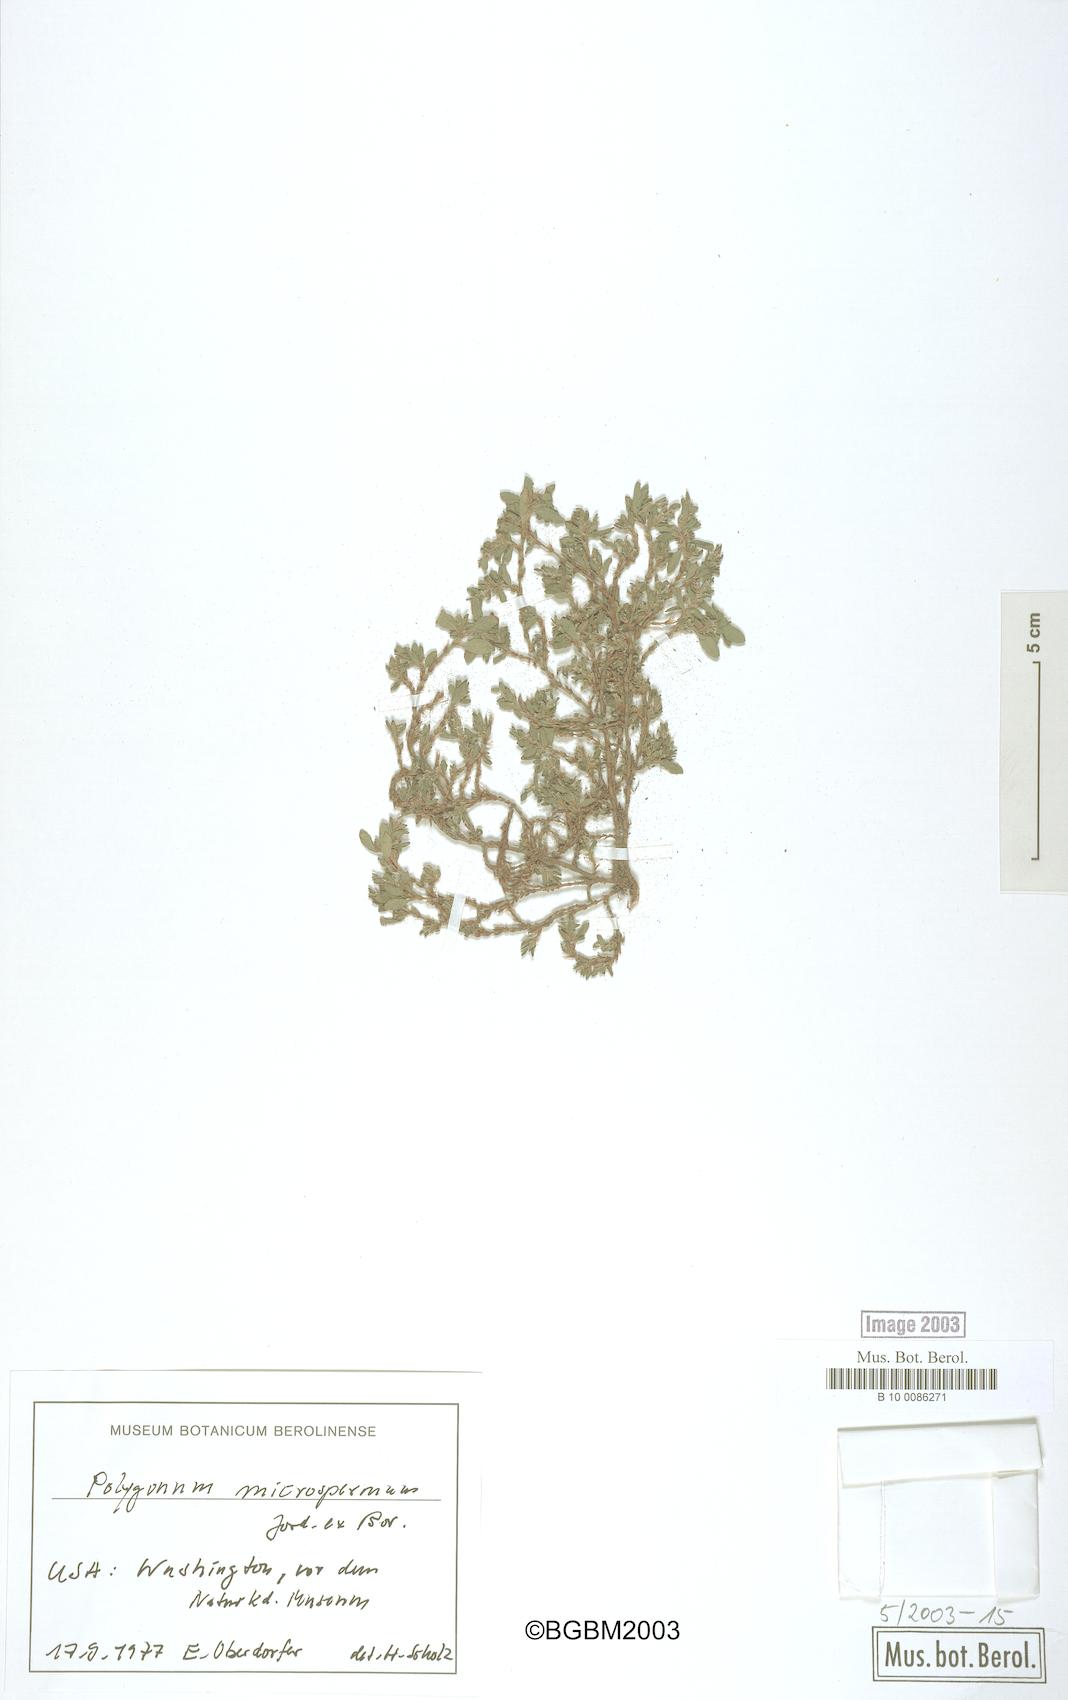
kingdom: Plantae
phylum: Tracheophyta
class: Magnoliopsida
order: Caryophyllales
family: Polygonaceae
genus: Polygonum
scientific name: Polygonum
